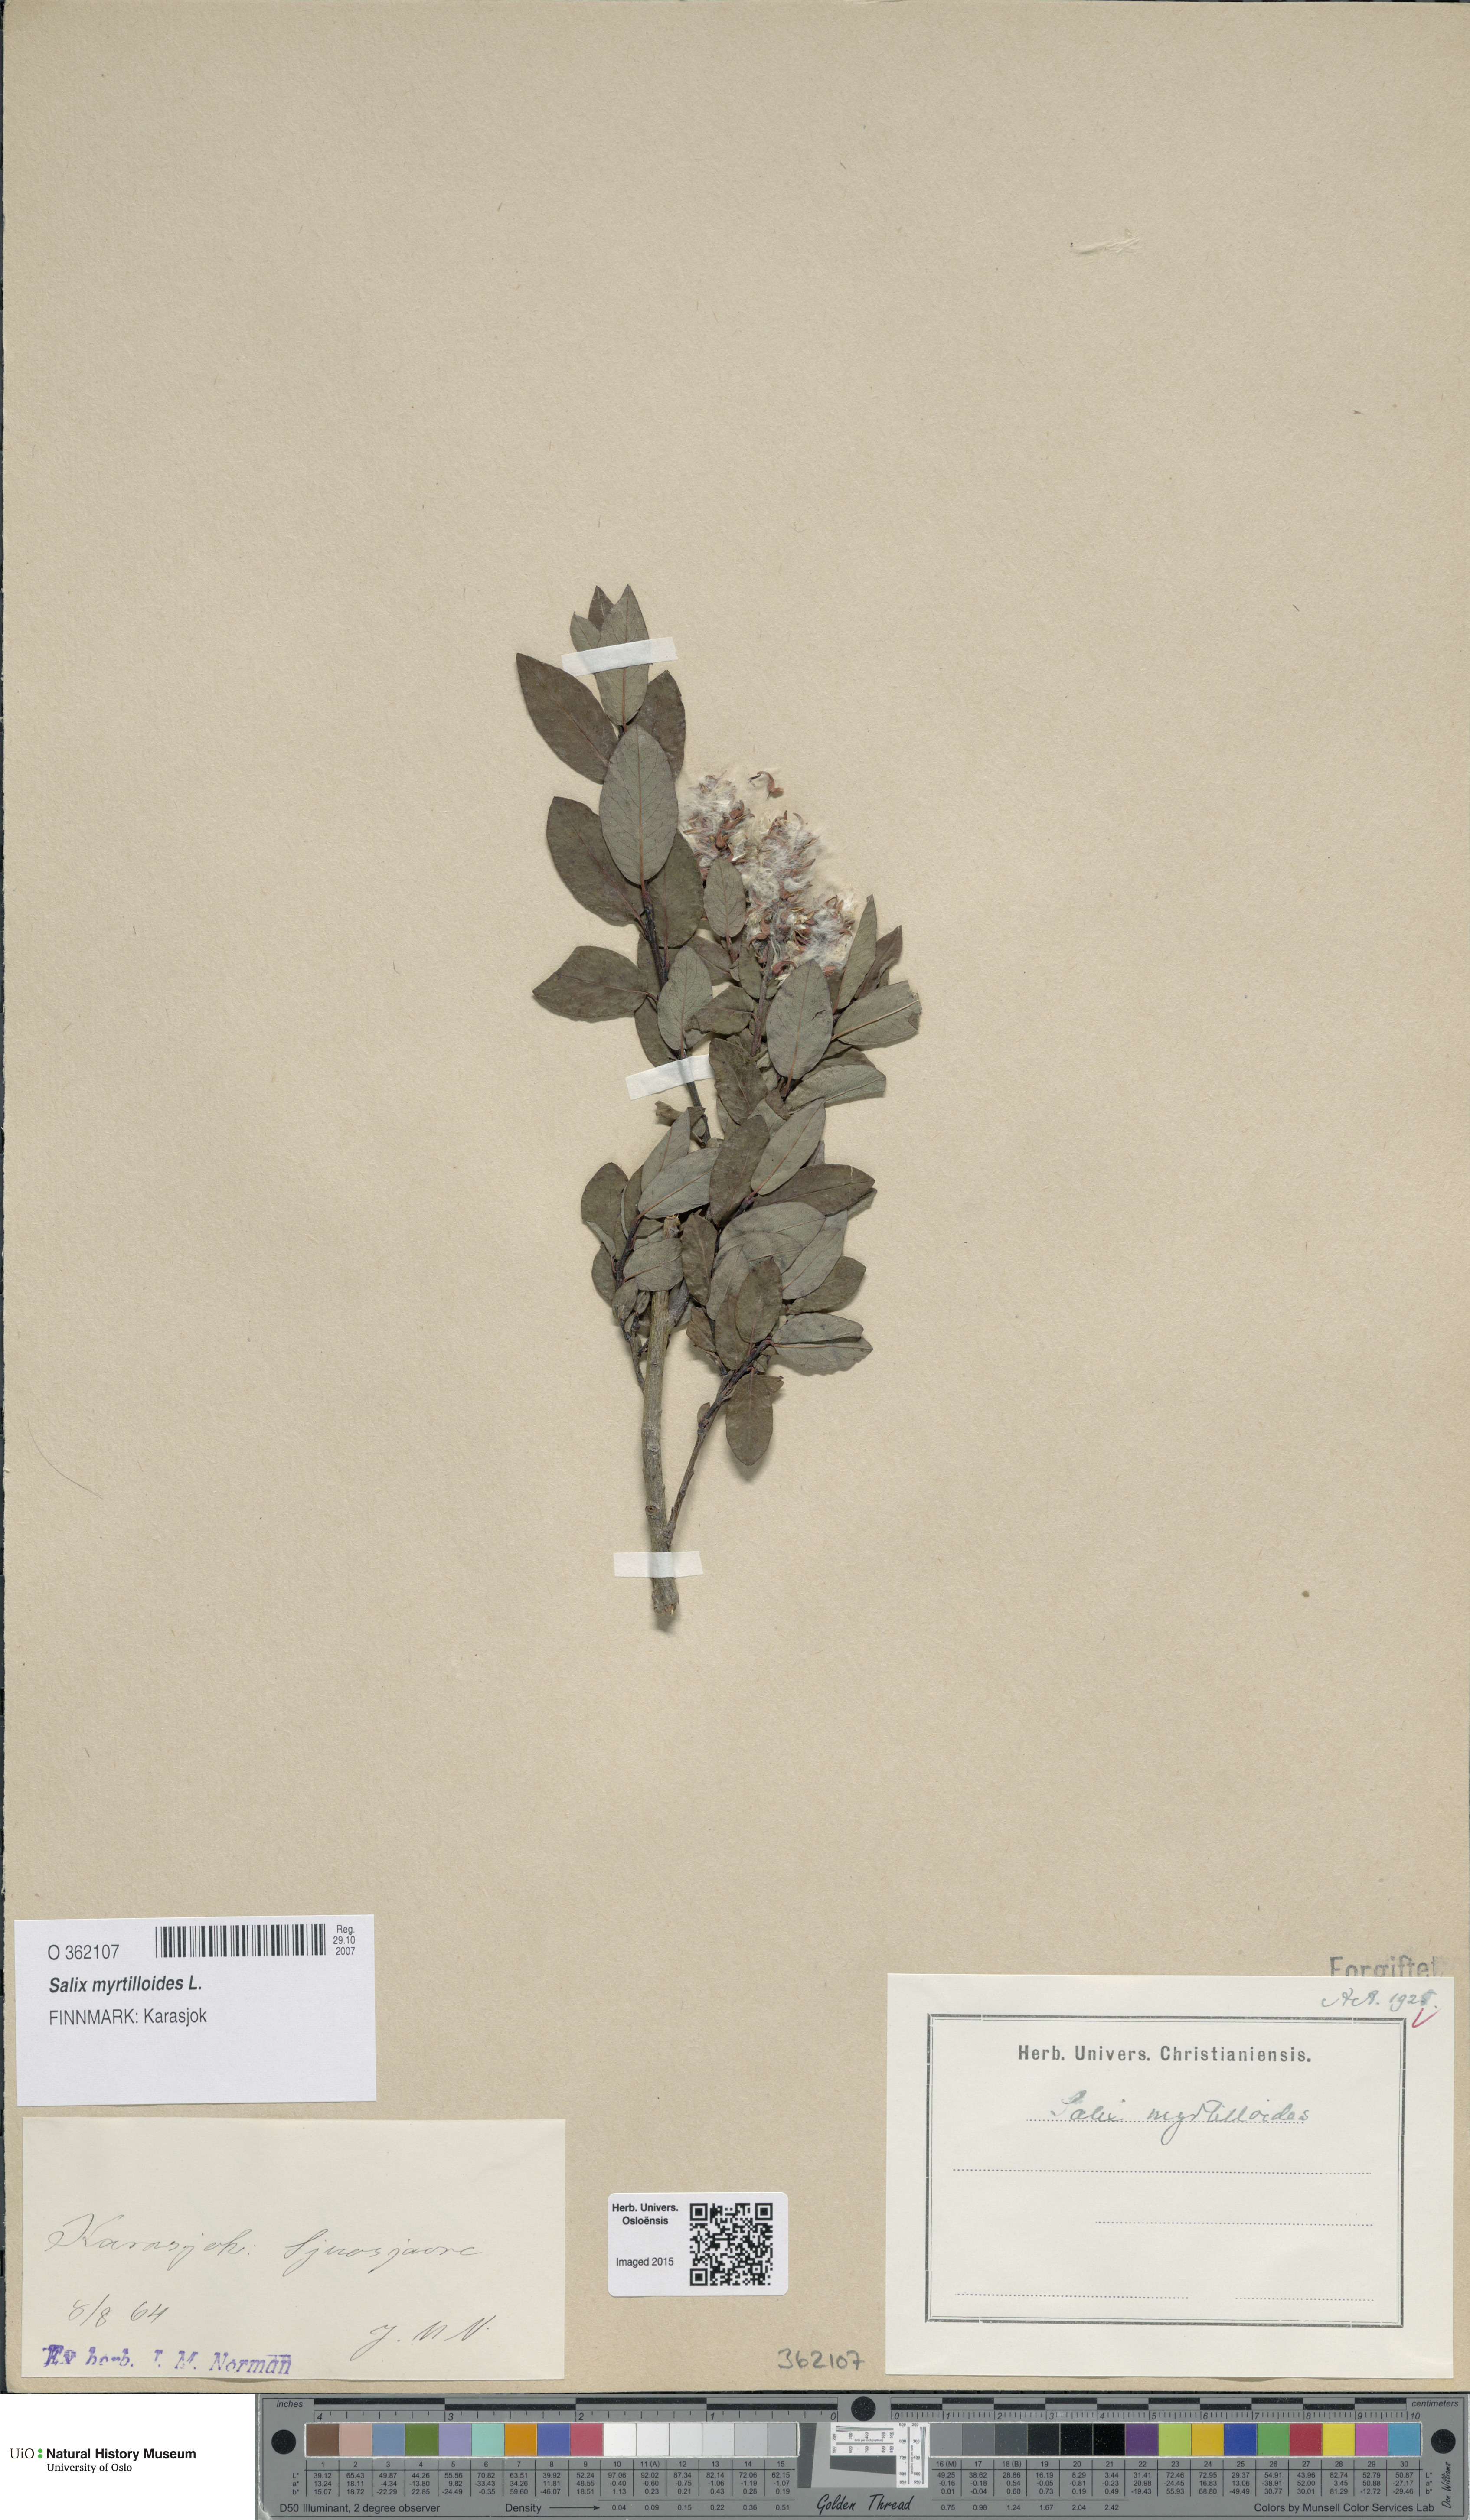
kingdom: Plantae
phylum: Tracheophyta
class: Magnoliopsida
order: Malpighiales
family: Salicaceae
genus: Salix
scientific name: Salix myrtilloides
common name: Myrtle-leaved willow
